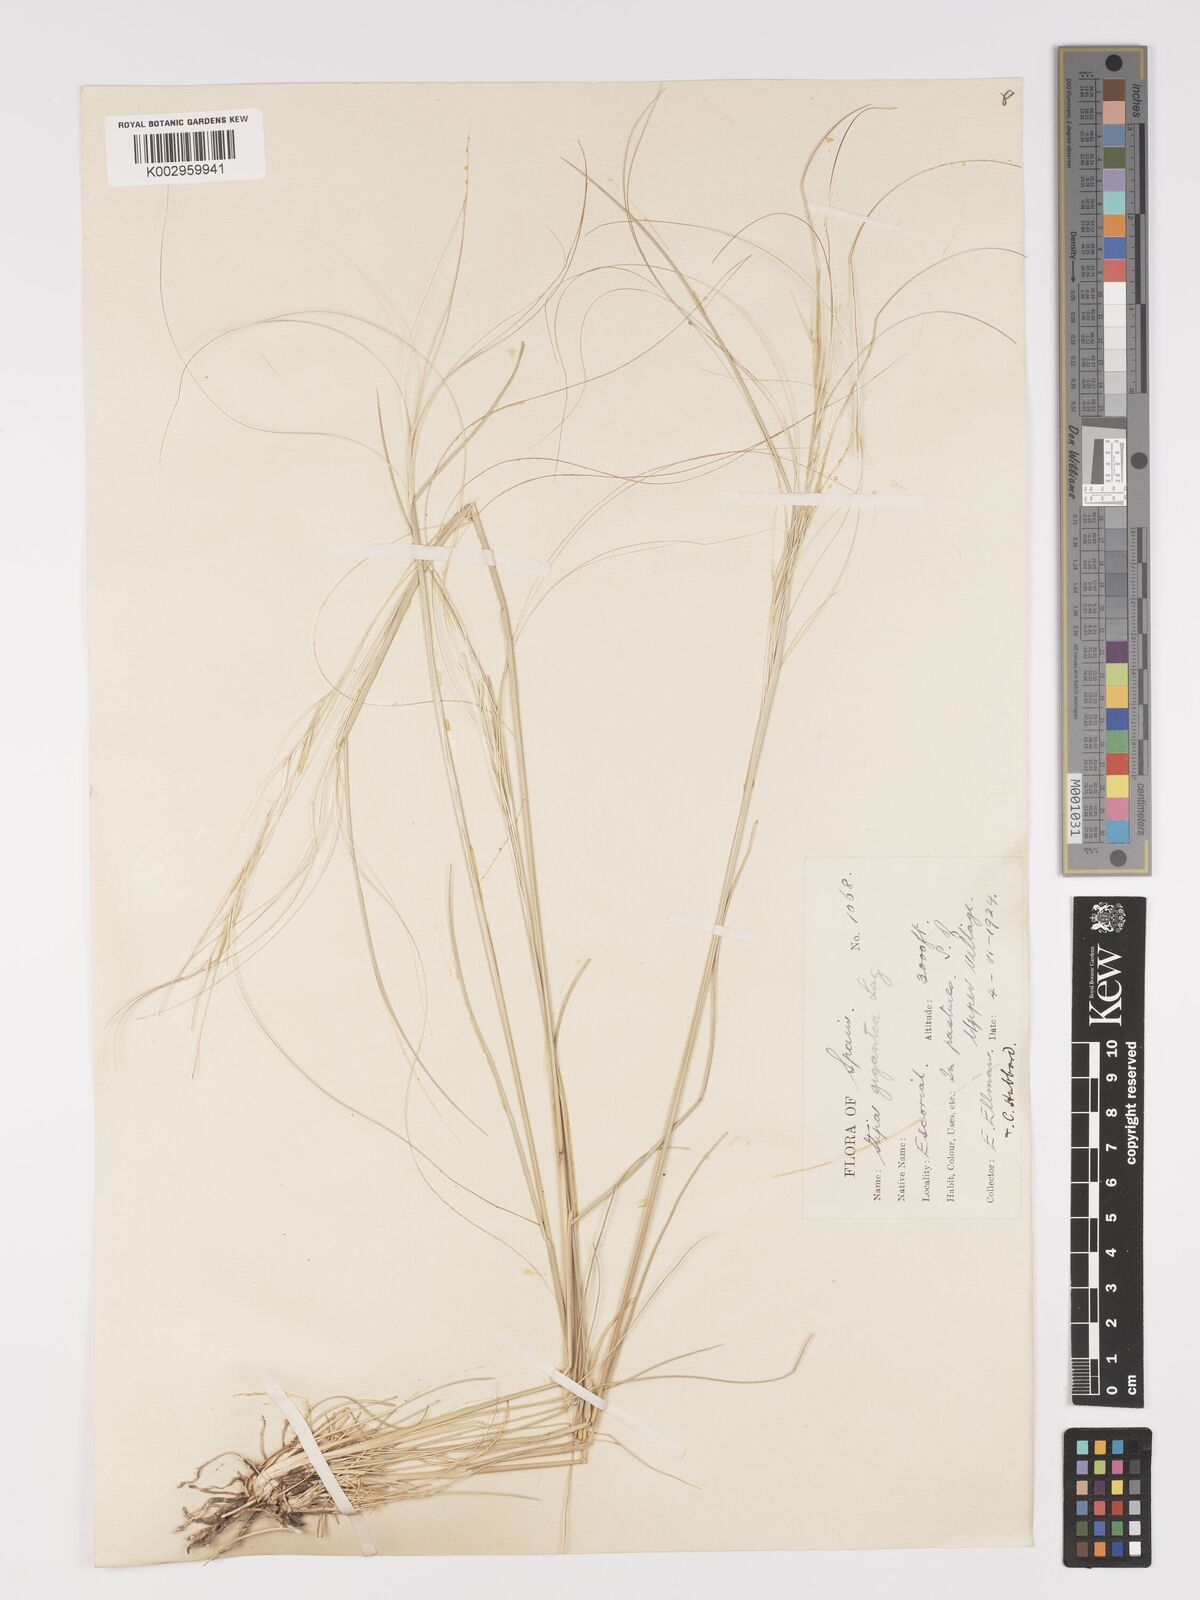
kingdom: Plantae
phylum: Tracheophyta
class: Liliopsida
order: Poales
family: Poaceae
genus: Stipa
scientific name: Stipa
